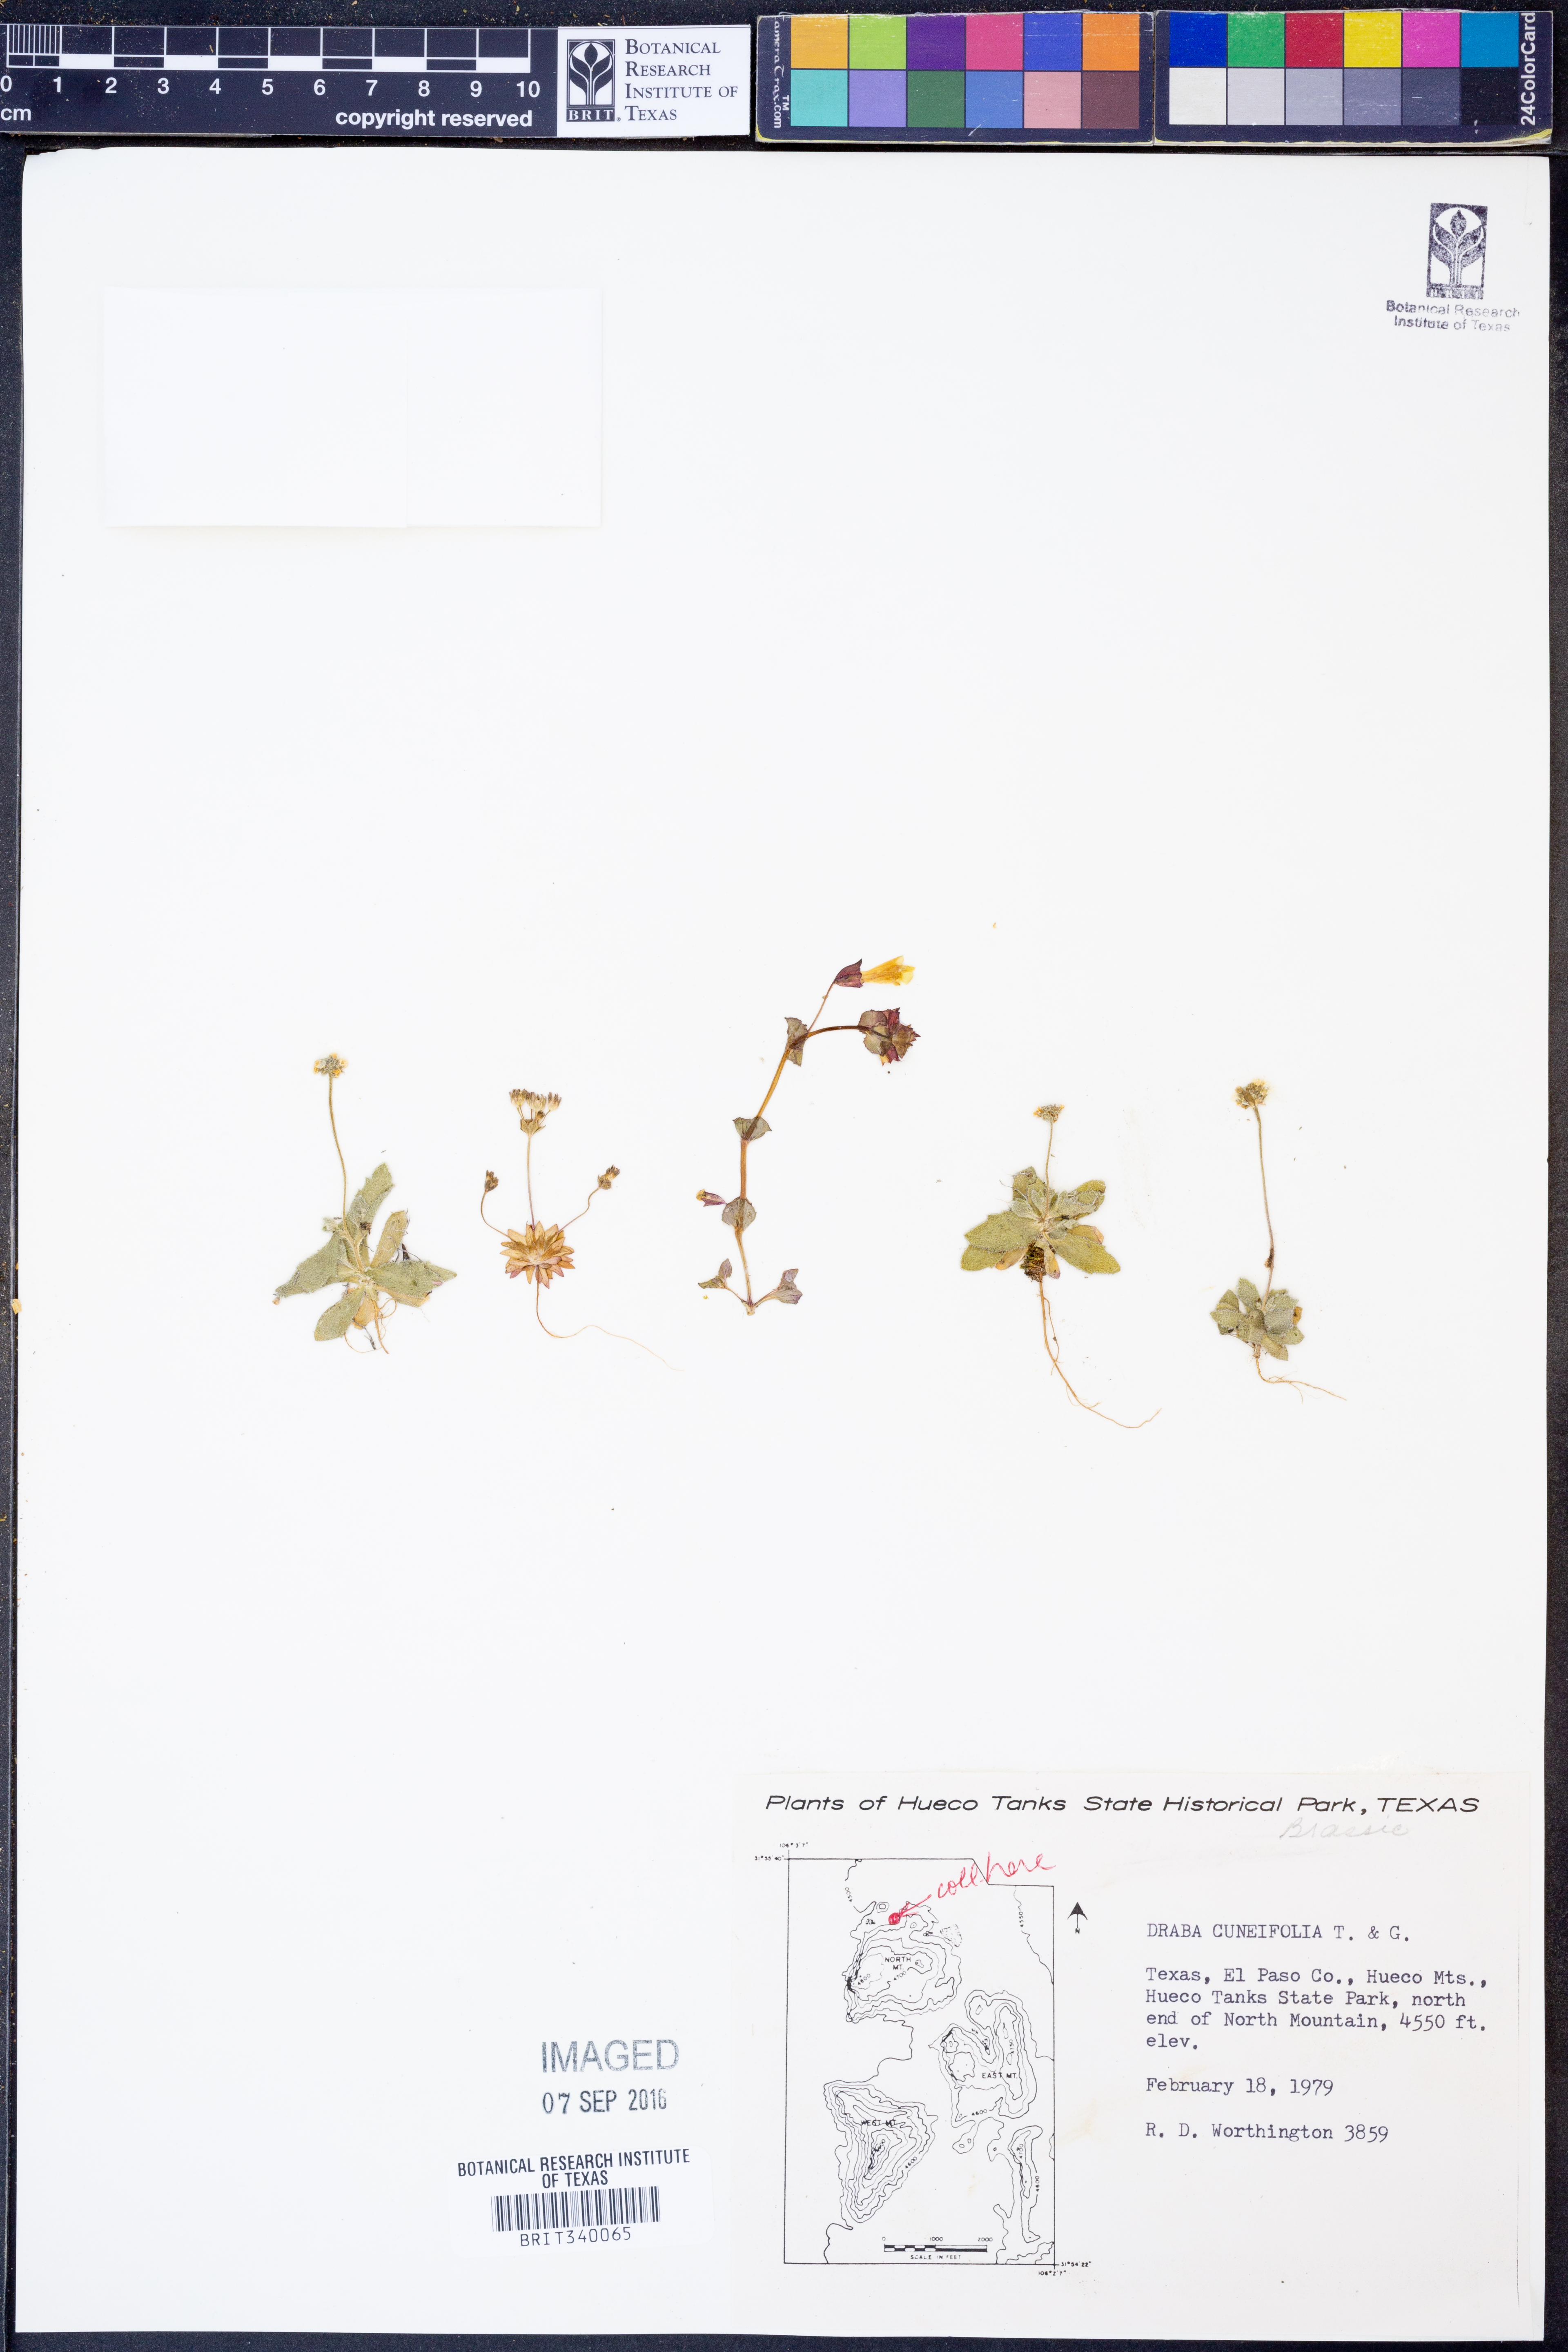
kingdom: Plantae
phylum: Tracheophyta
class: Magnoliopsida
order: Brassicales
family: Brassicaceae
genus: Tomostima
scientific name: Tomostima cuneifolia
